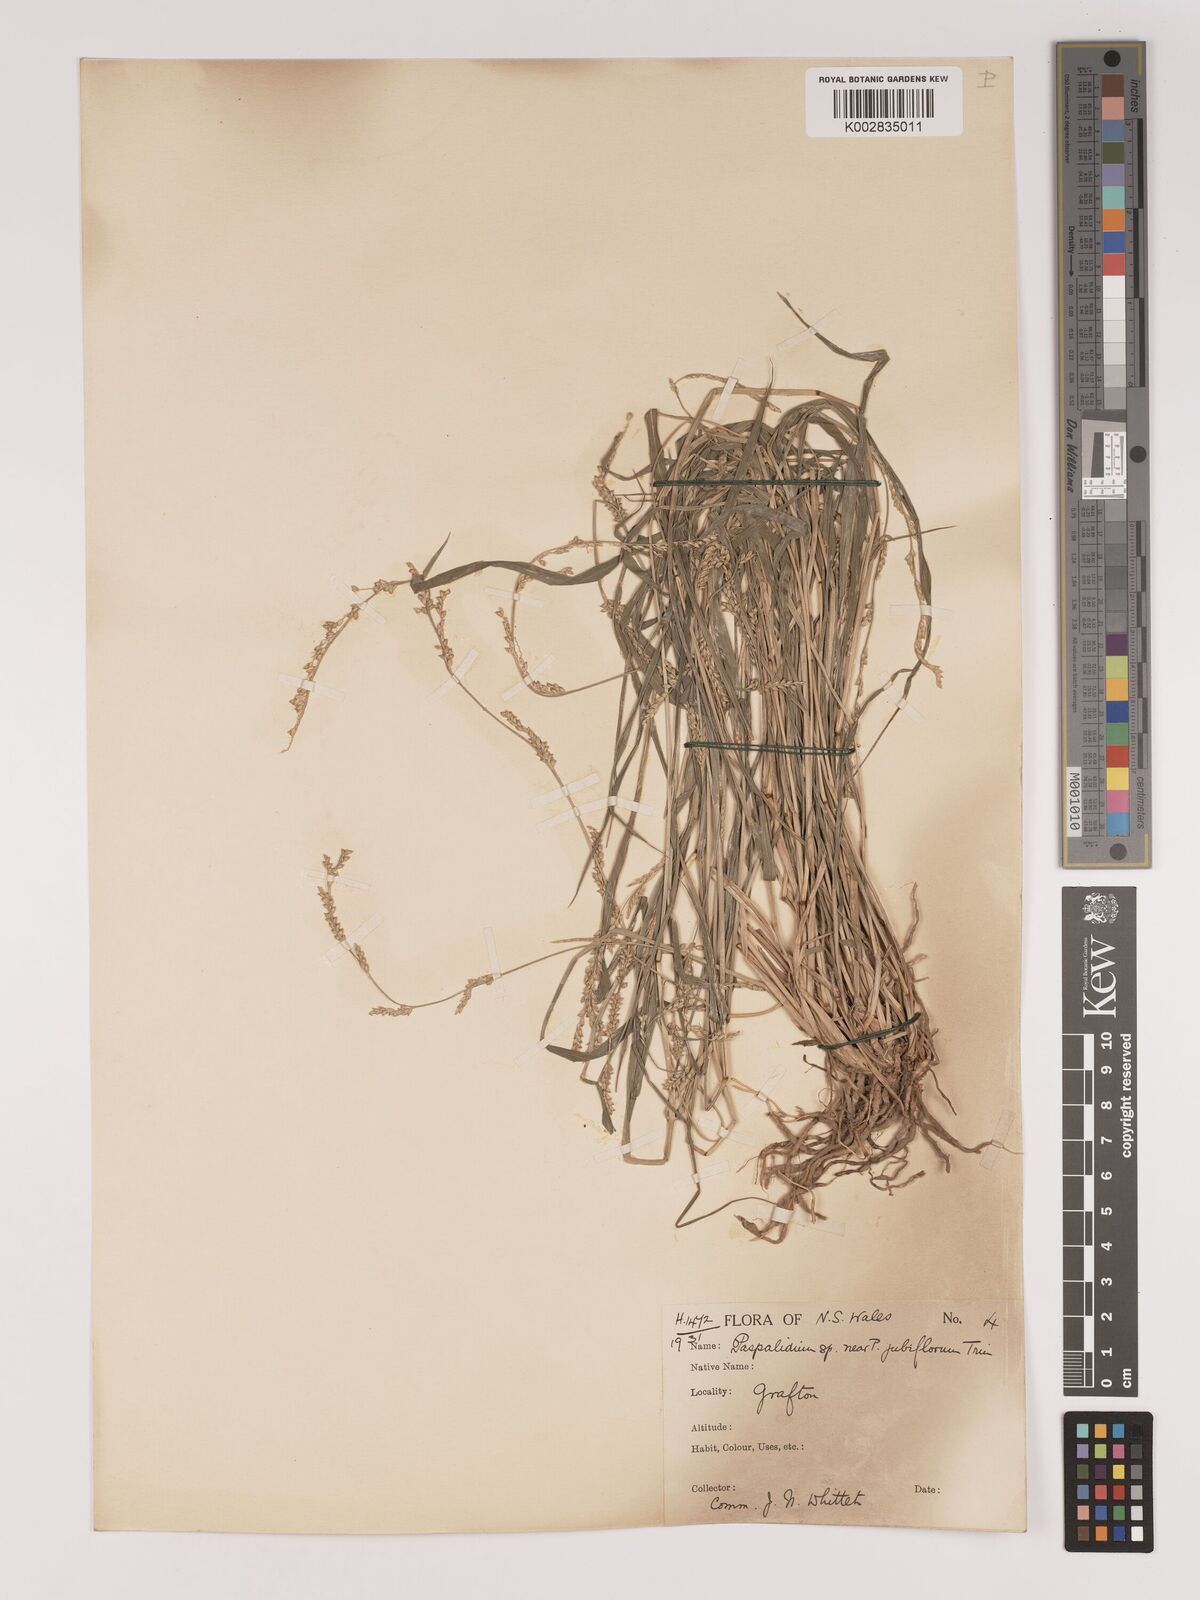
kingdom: Plantae
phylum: Tracheophyta
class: Liliopsida
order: Poales
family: Poaceae
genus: Setaria
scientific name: Setaria
